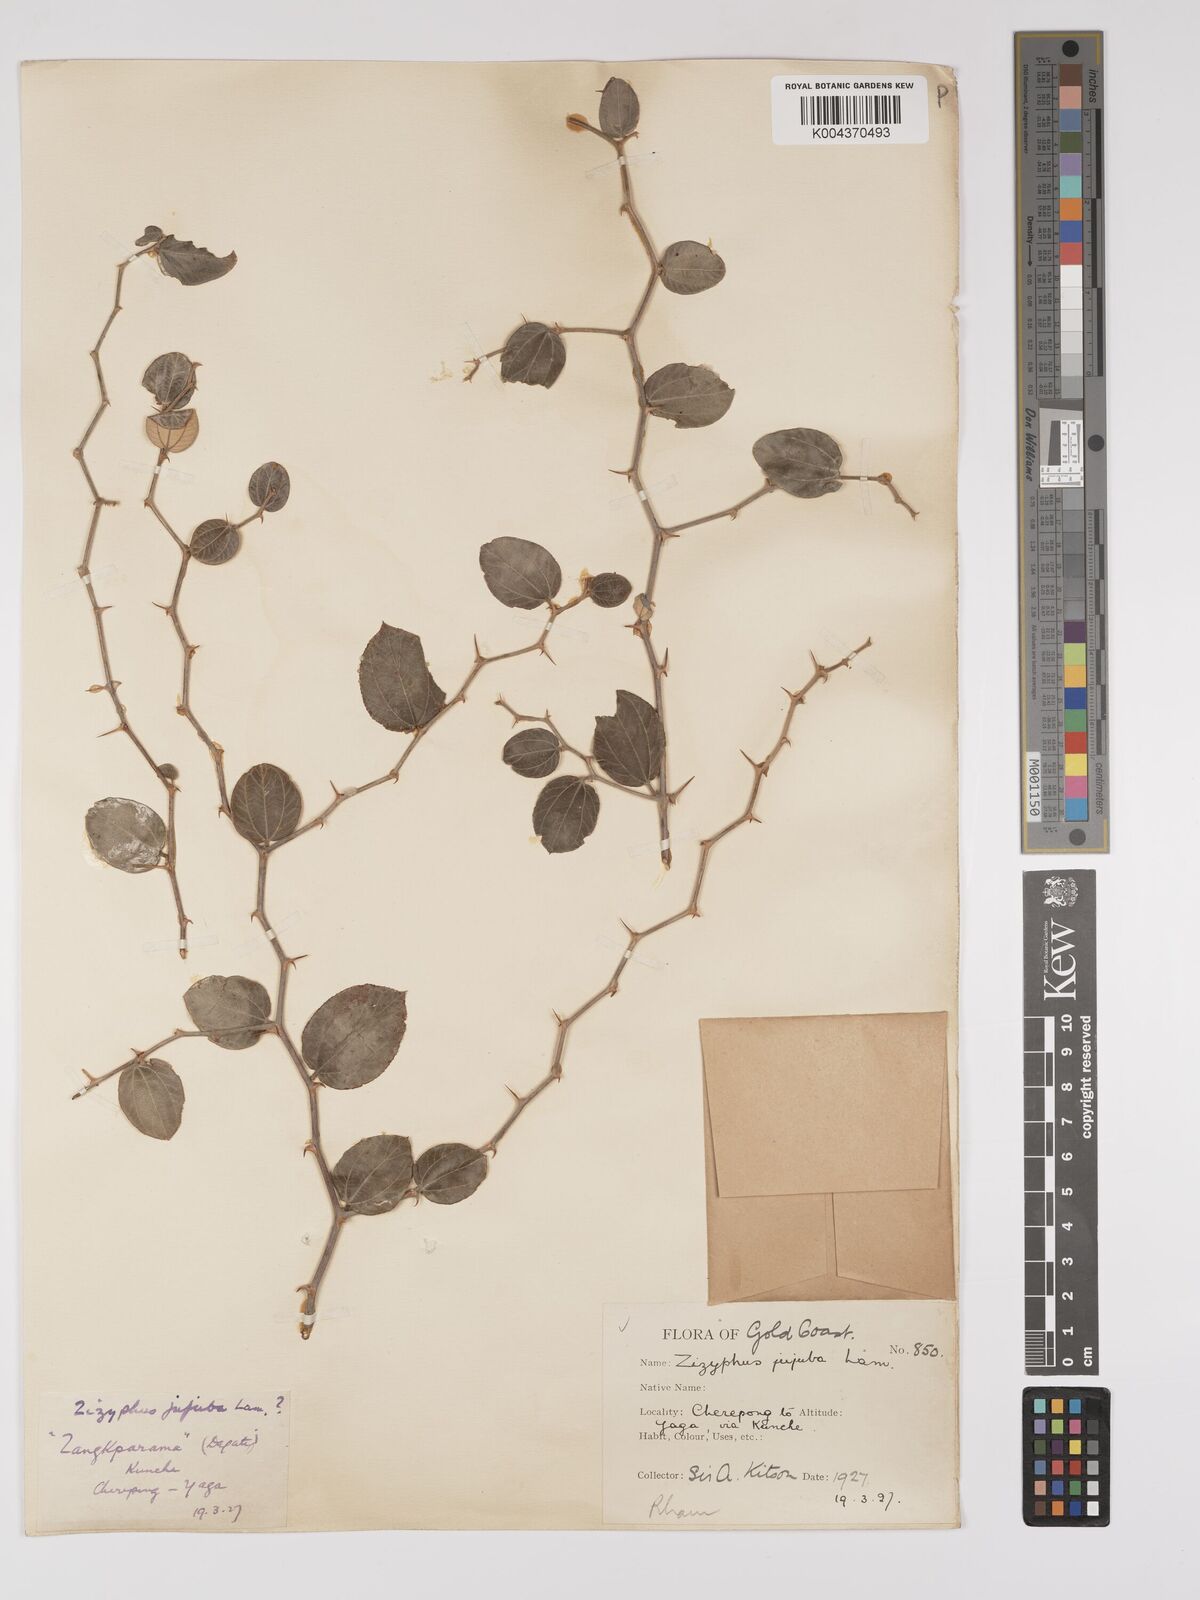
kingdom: Plantae
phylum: Tracheophyta
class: Magnoliopsida
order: Rosales
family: Rhamnaceae
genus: Ziziphus
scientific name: Ziziphus mauritiana
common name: Indian jujube
